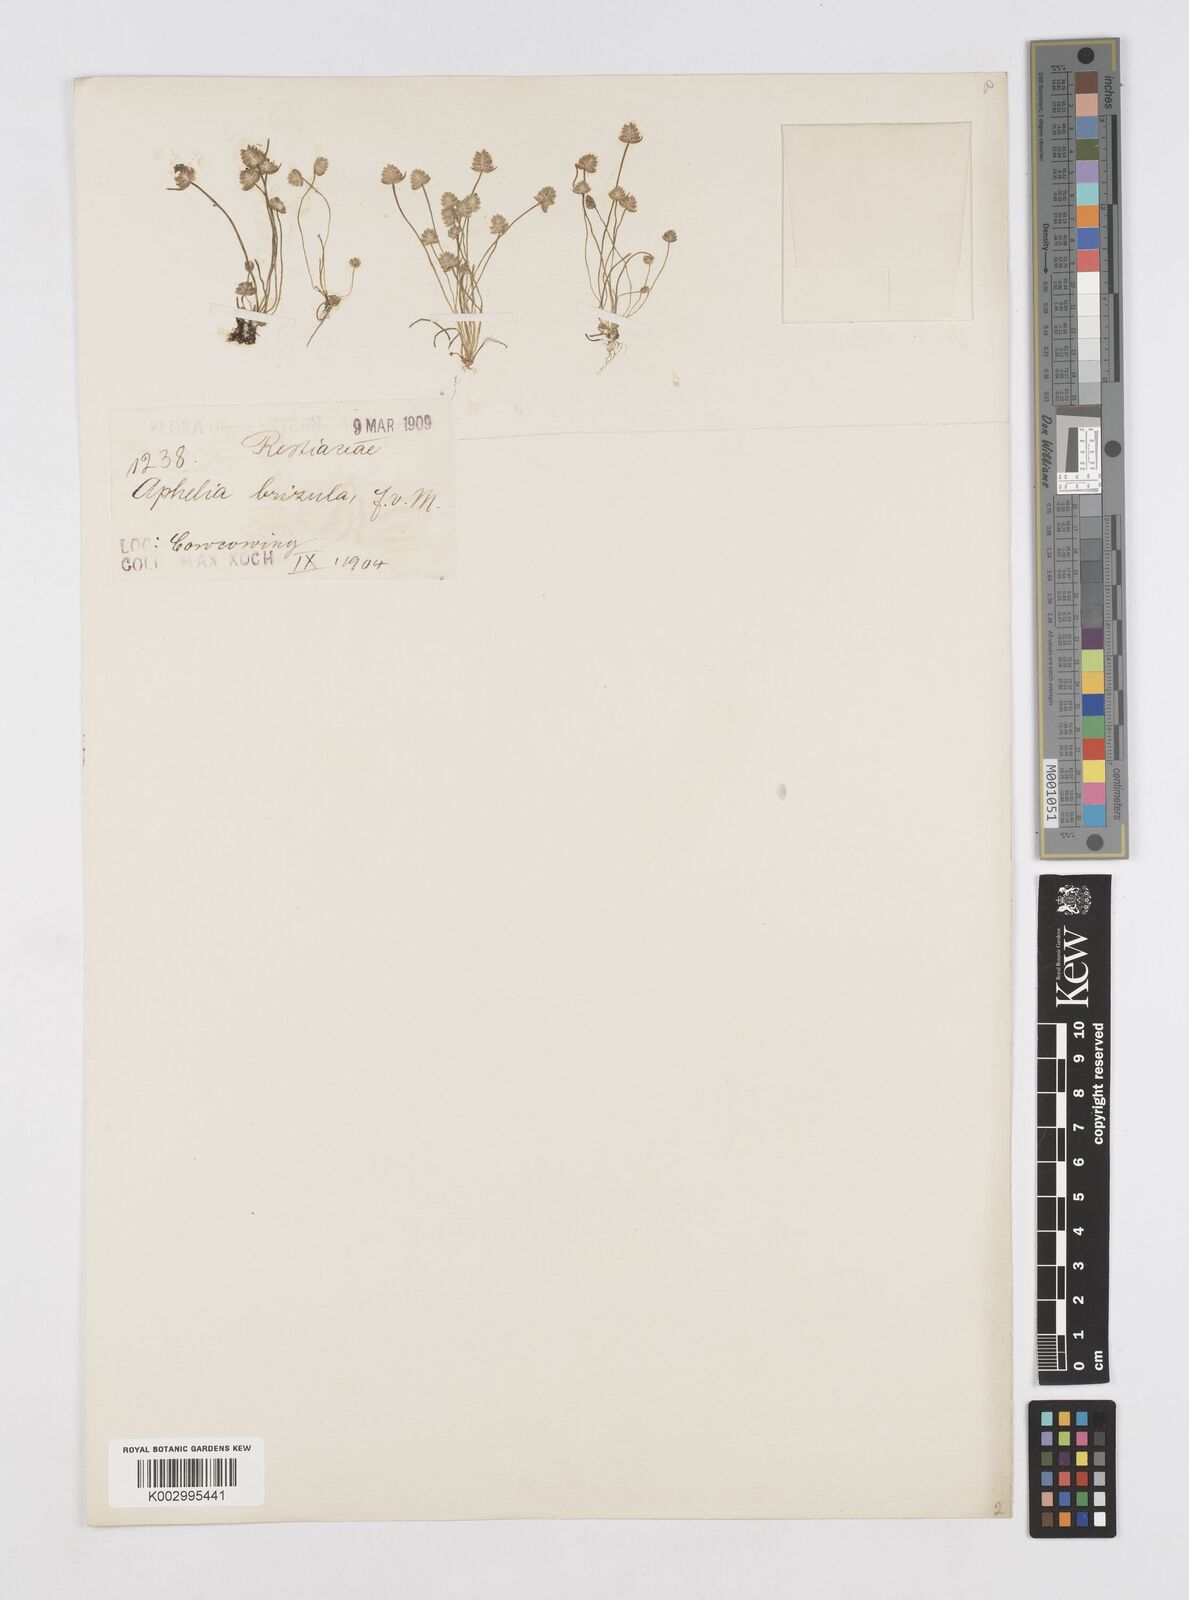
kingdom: Plantae
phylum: Tracheophyta
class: Liliopsida
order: Poales
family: Restionaceae
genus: Aphelia
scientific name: Aphelia
